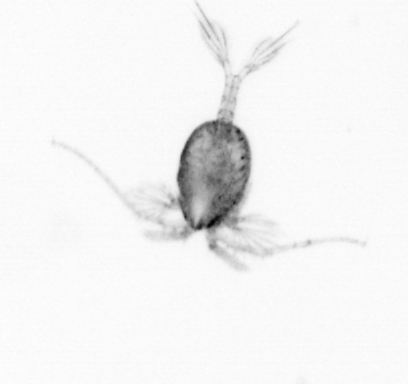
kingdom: Animalia
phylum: Arthropoda
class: Copepoda
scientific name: Copepoda
